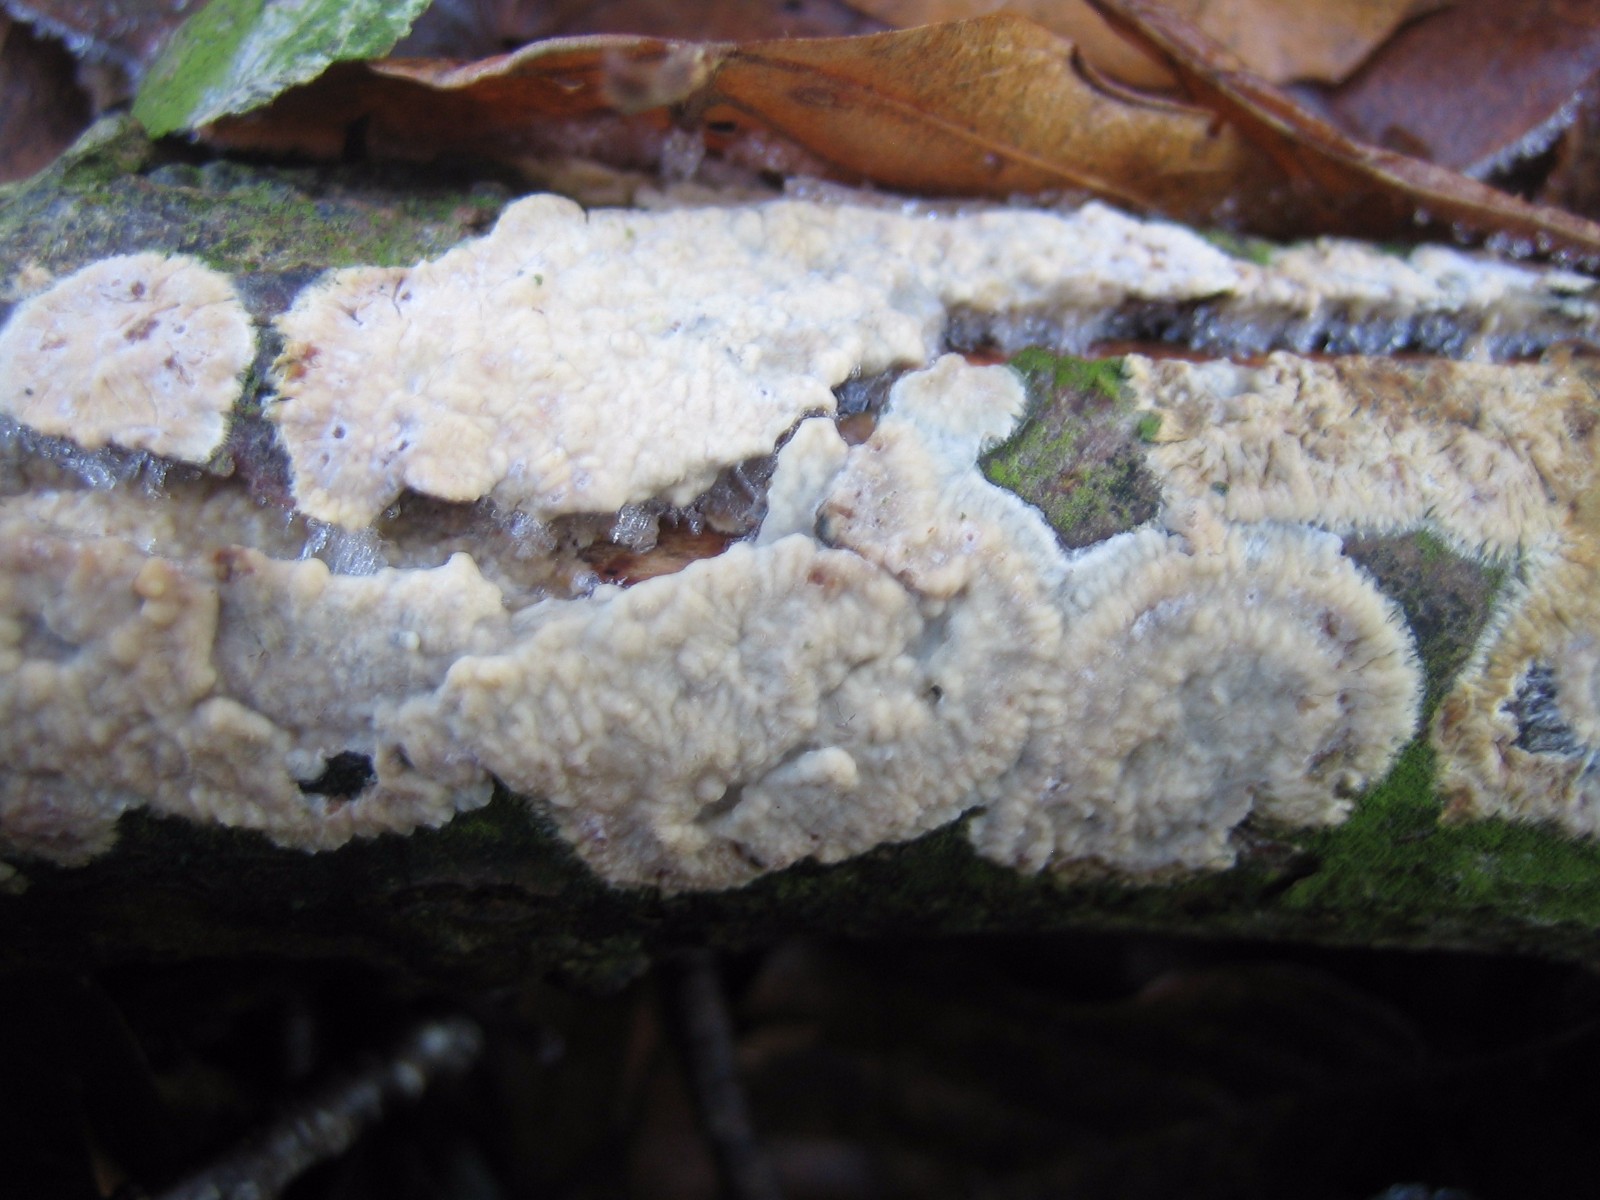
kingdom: Fungi
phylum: Basidiomycota
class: Agaricomycetes
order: Polyporales
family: Meruliaceae
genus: Phlebia
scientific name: Phlebia radiata
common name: stråle-åresvamp
